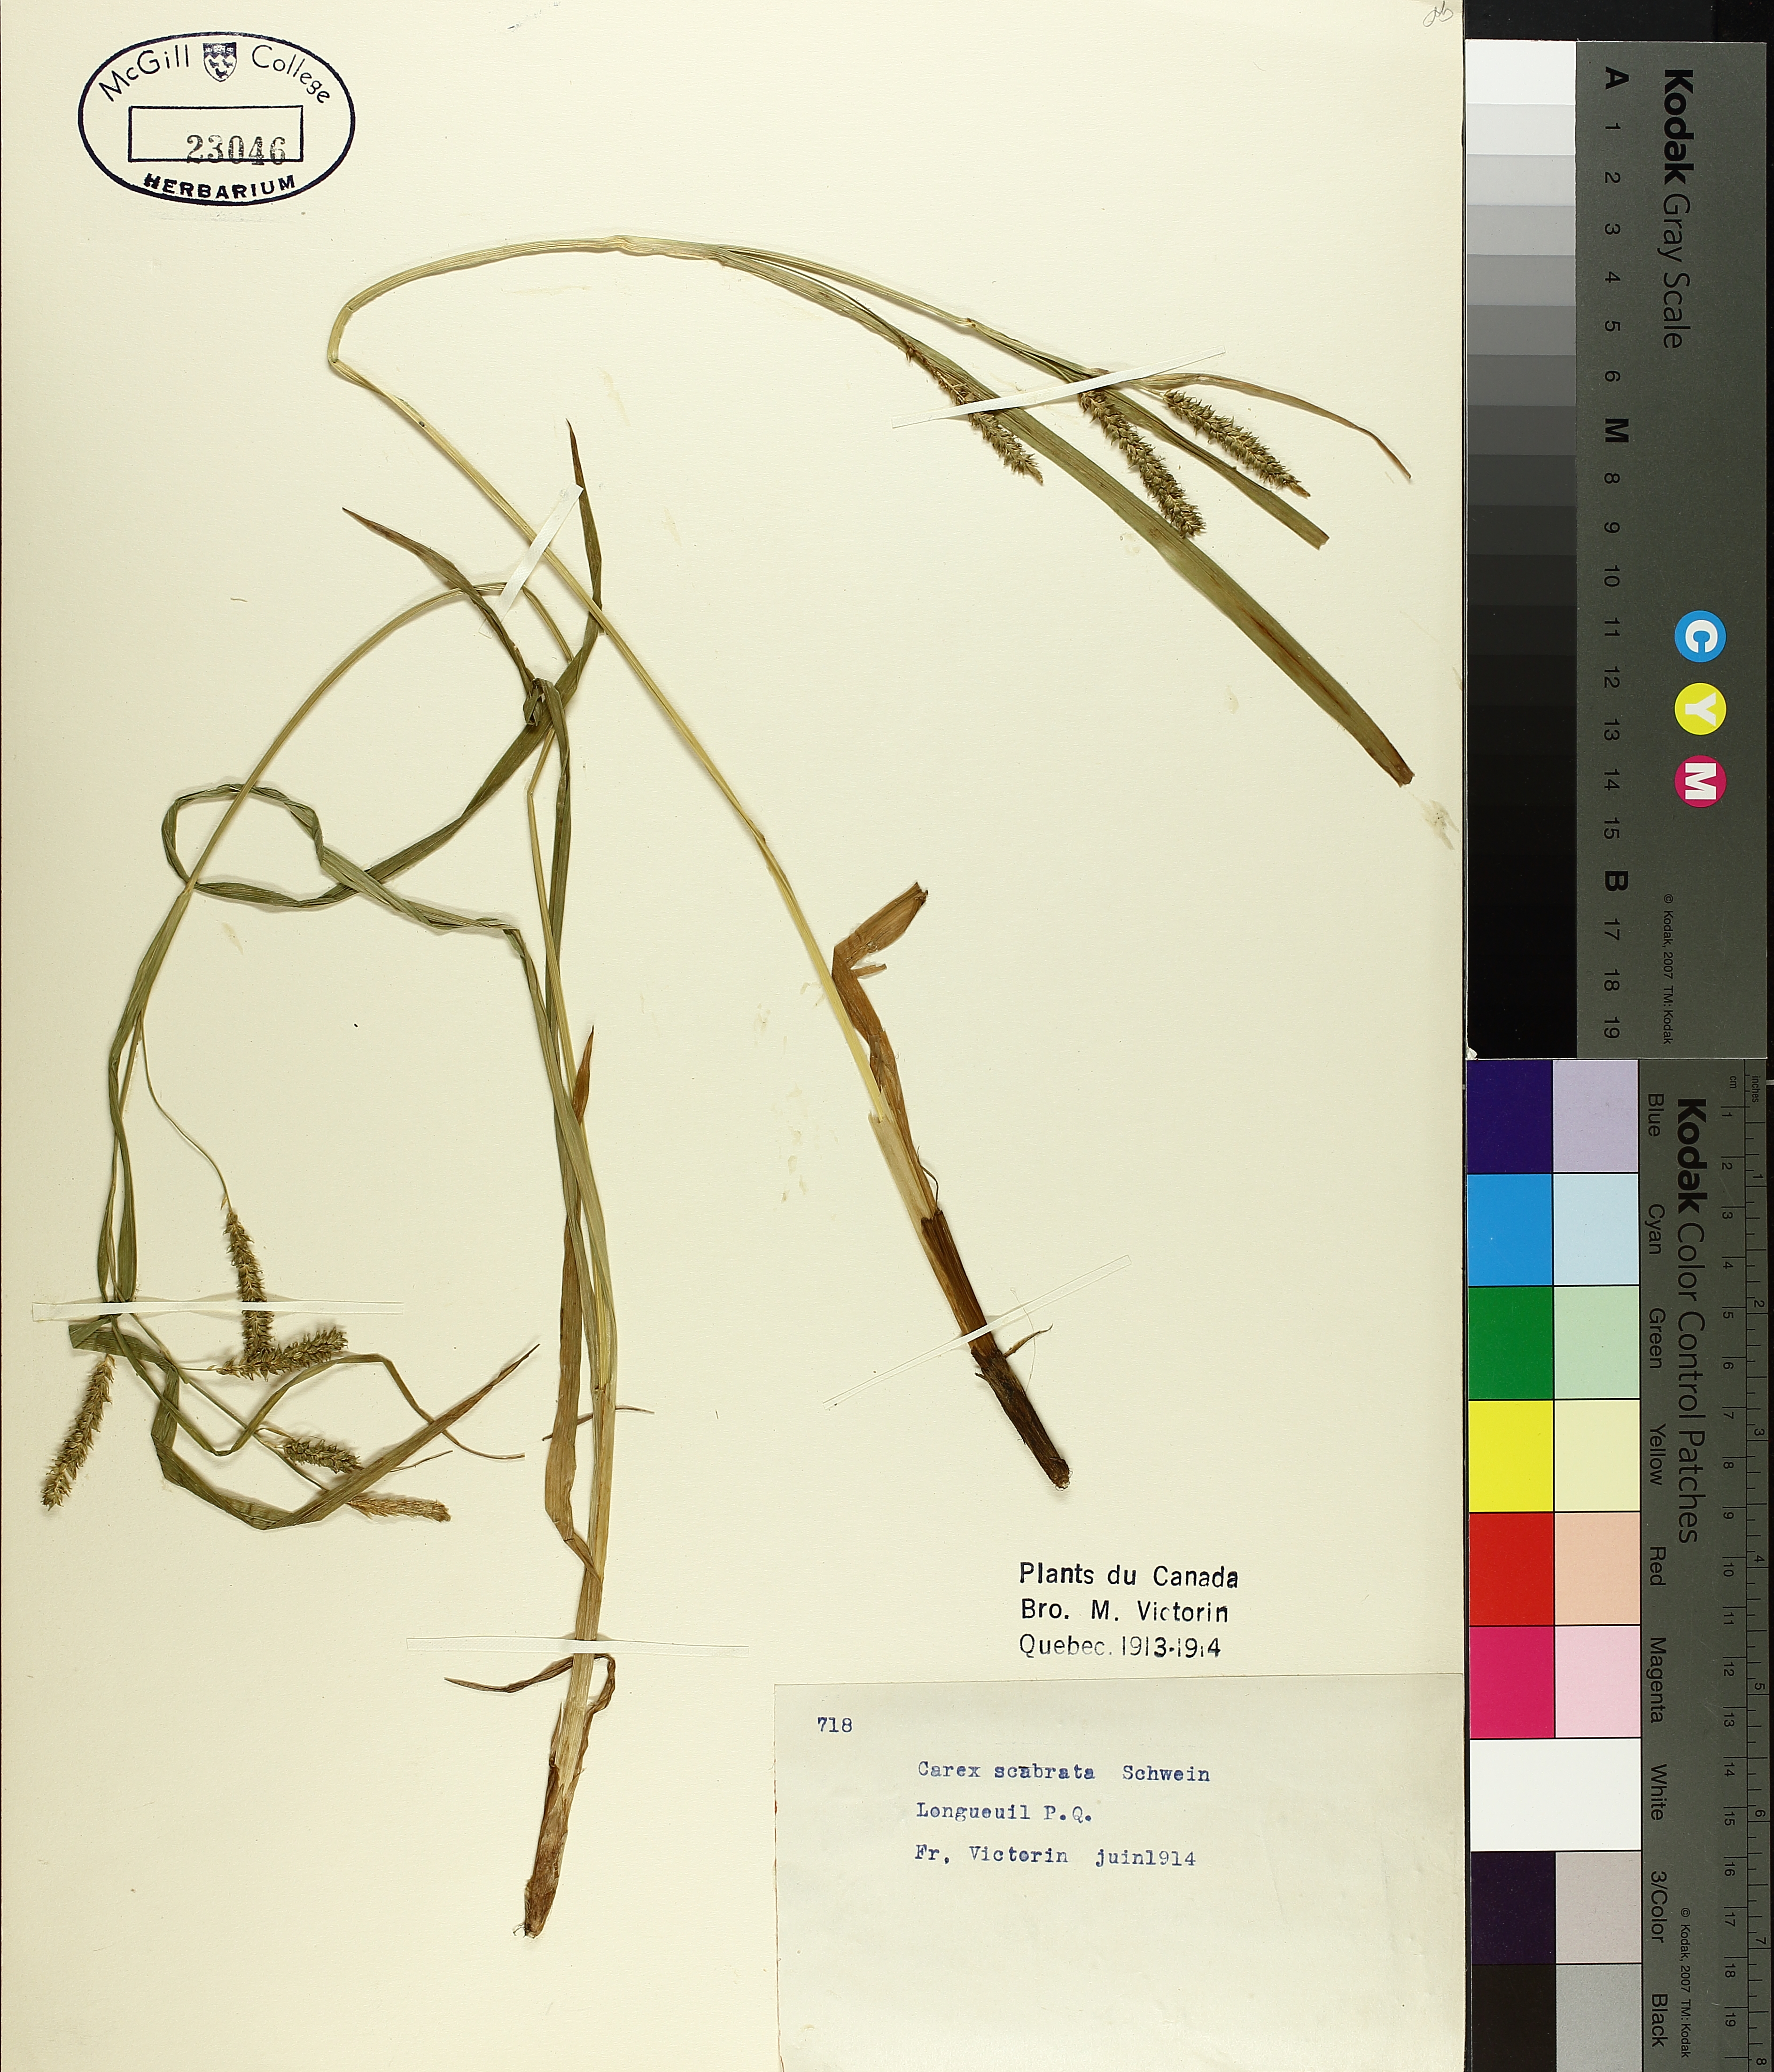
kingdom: Plantae
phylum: Tracheophyta
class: Liliopsida
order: Poales
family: Cyperaceae
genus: Carex
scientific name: Carex saxatilis
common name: Russet sedge
